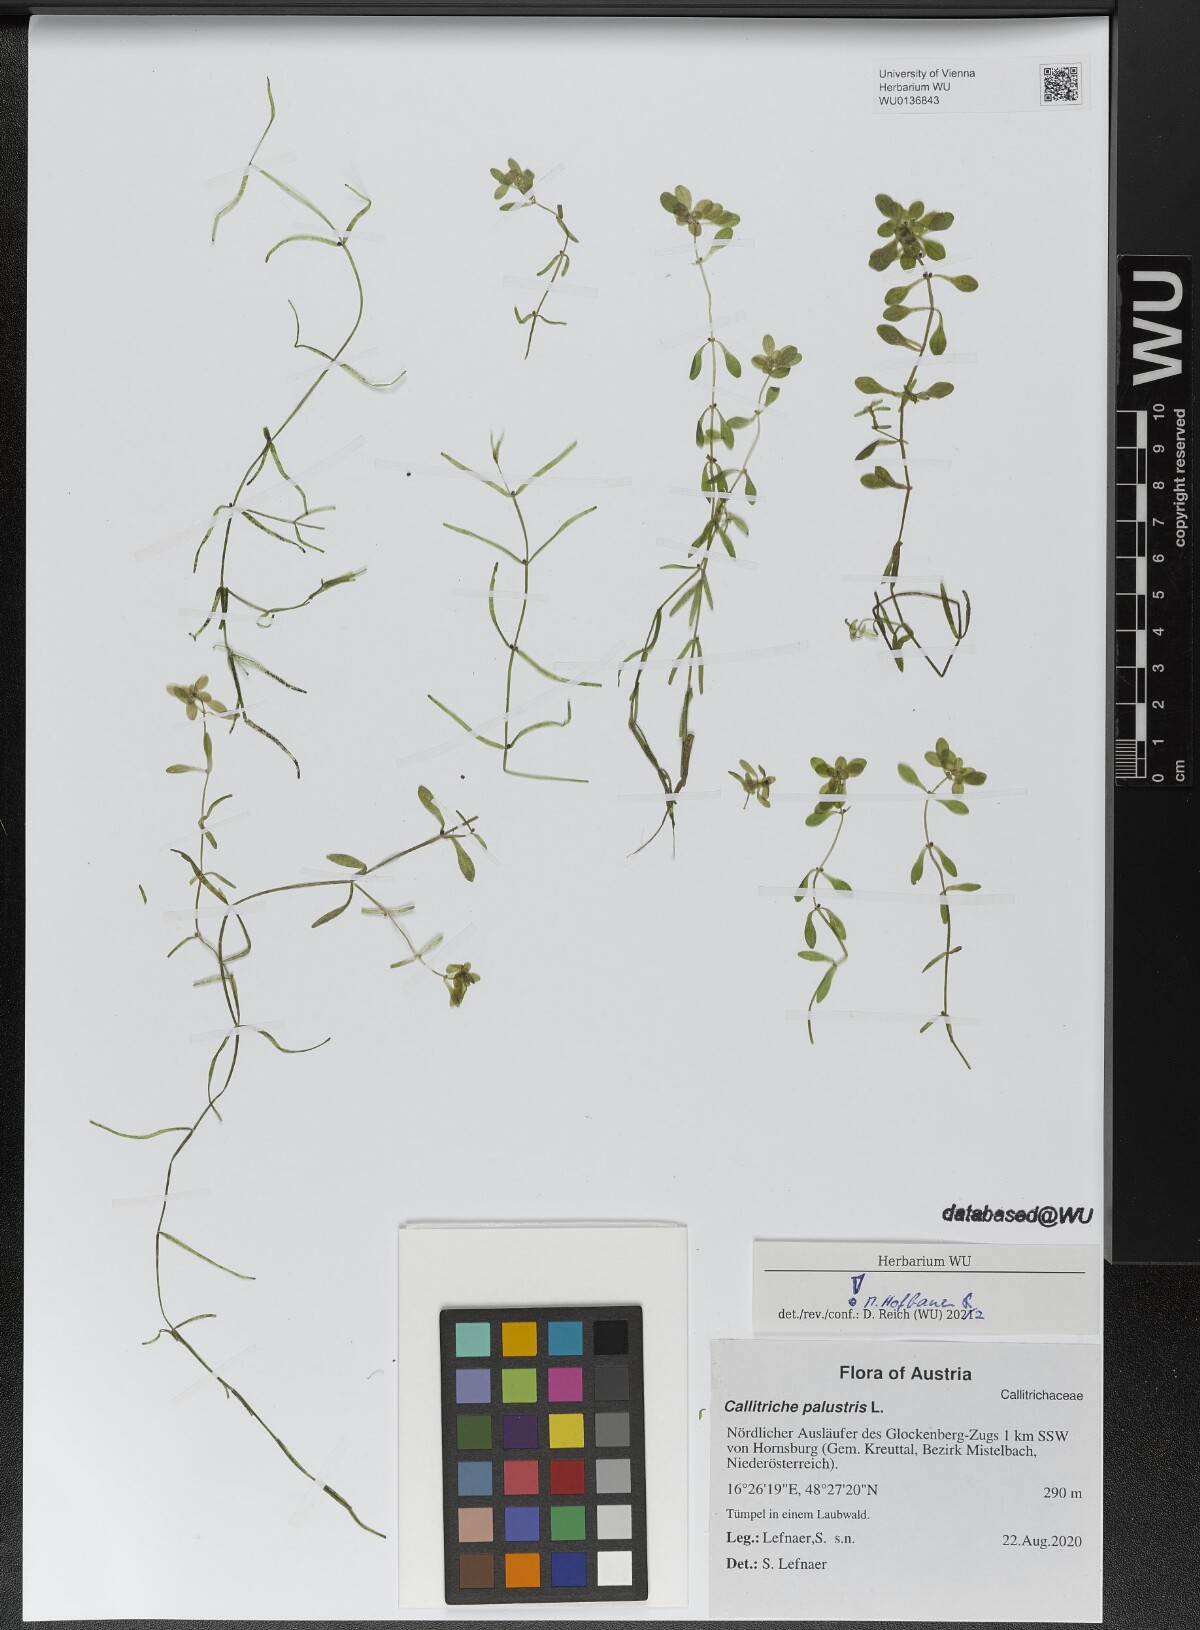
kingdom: Plantae
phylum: Tracheophyta
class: Magnoliopsida
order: Lamiales
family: Plantaginaceae
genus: Callitriche
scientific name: Callitriche palustris
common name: Spring water-starwort
